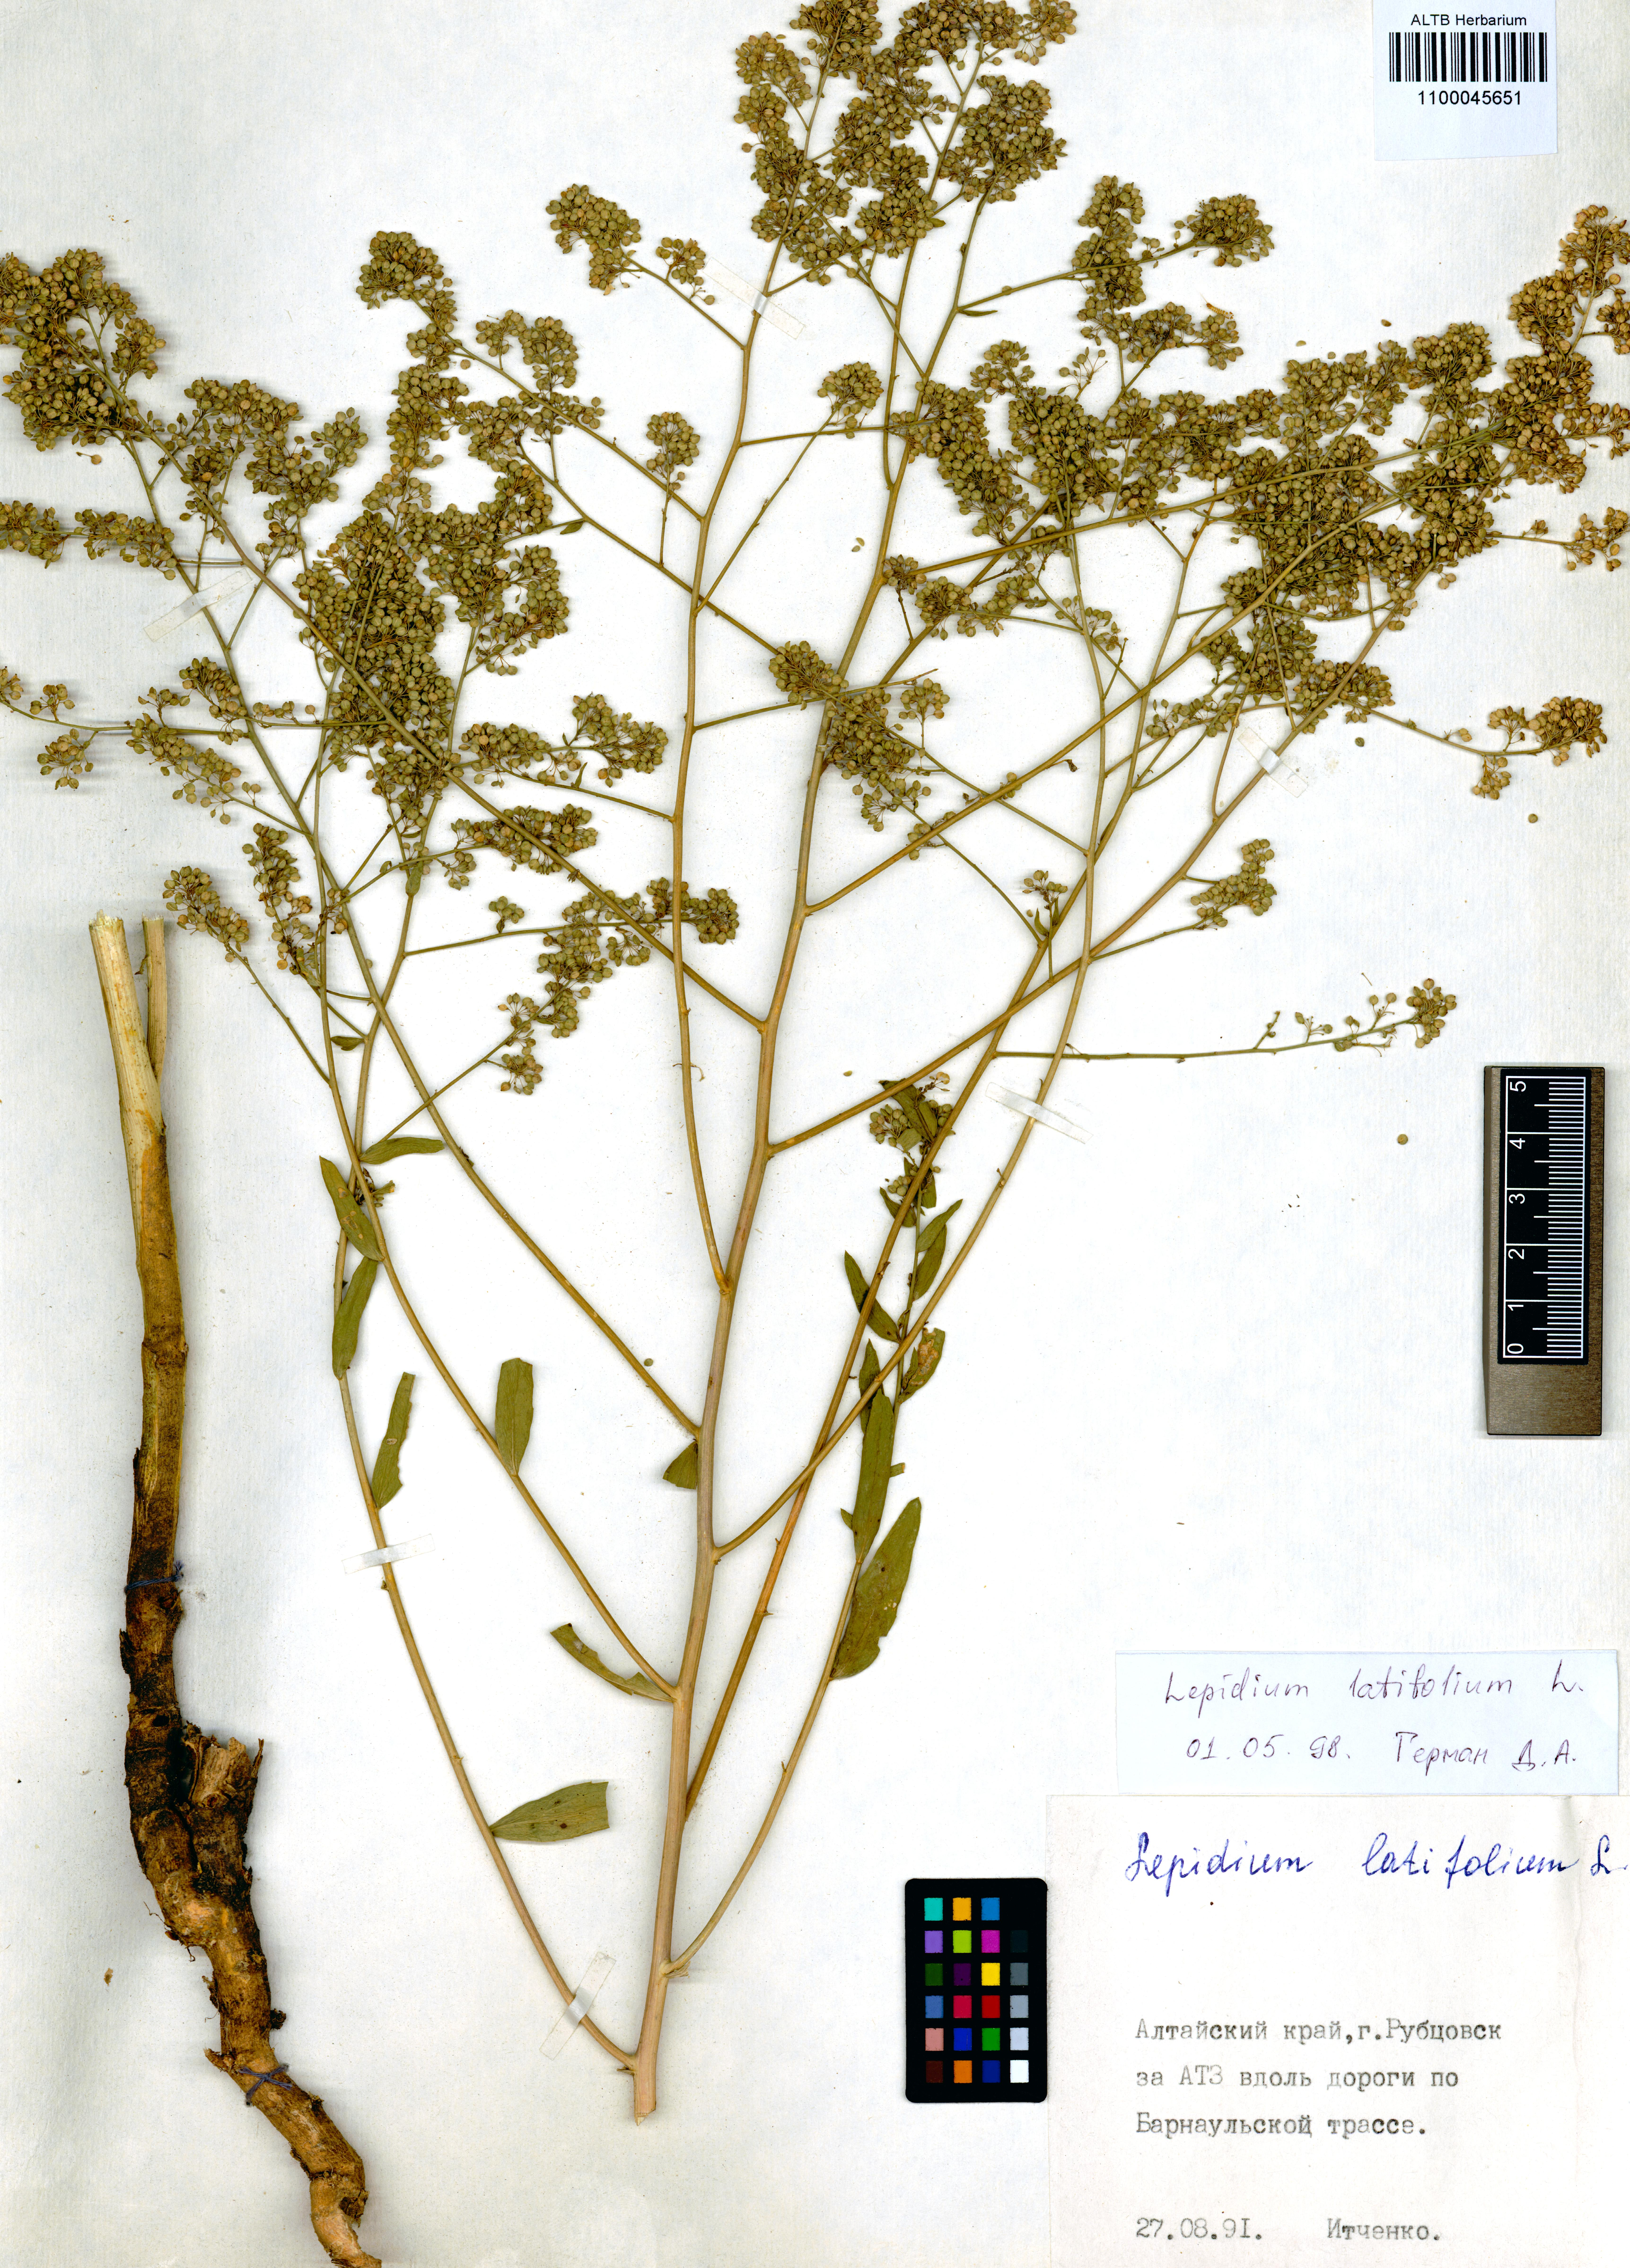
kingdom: Plantae
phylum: Tracheophyta
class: Magnoliopsida
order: Brassicales
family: Brassicaceae
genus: Lepidium
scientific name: Lepidium latifolium
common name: Dittander
